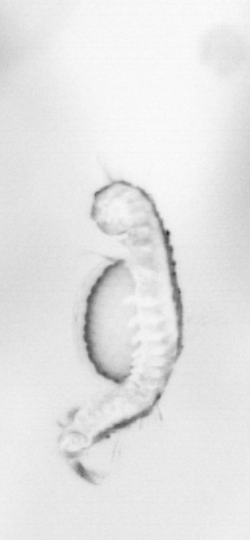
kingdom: Animalia
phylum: Annelida
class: Polychaeta
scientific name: Polychaeta
